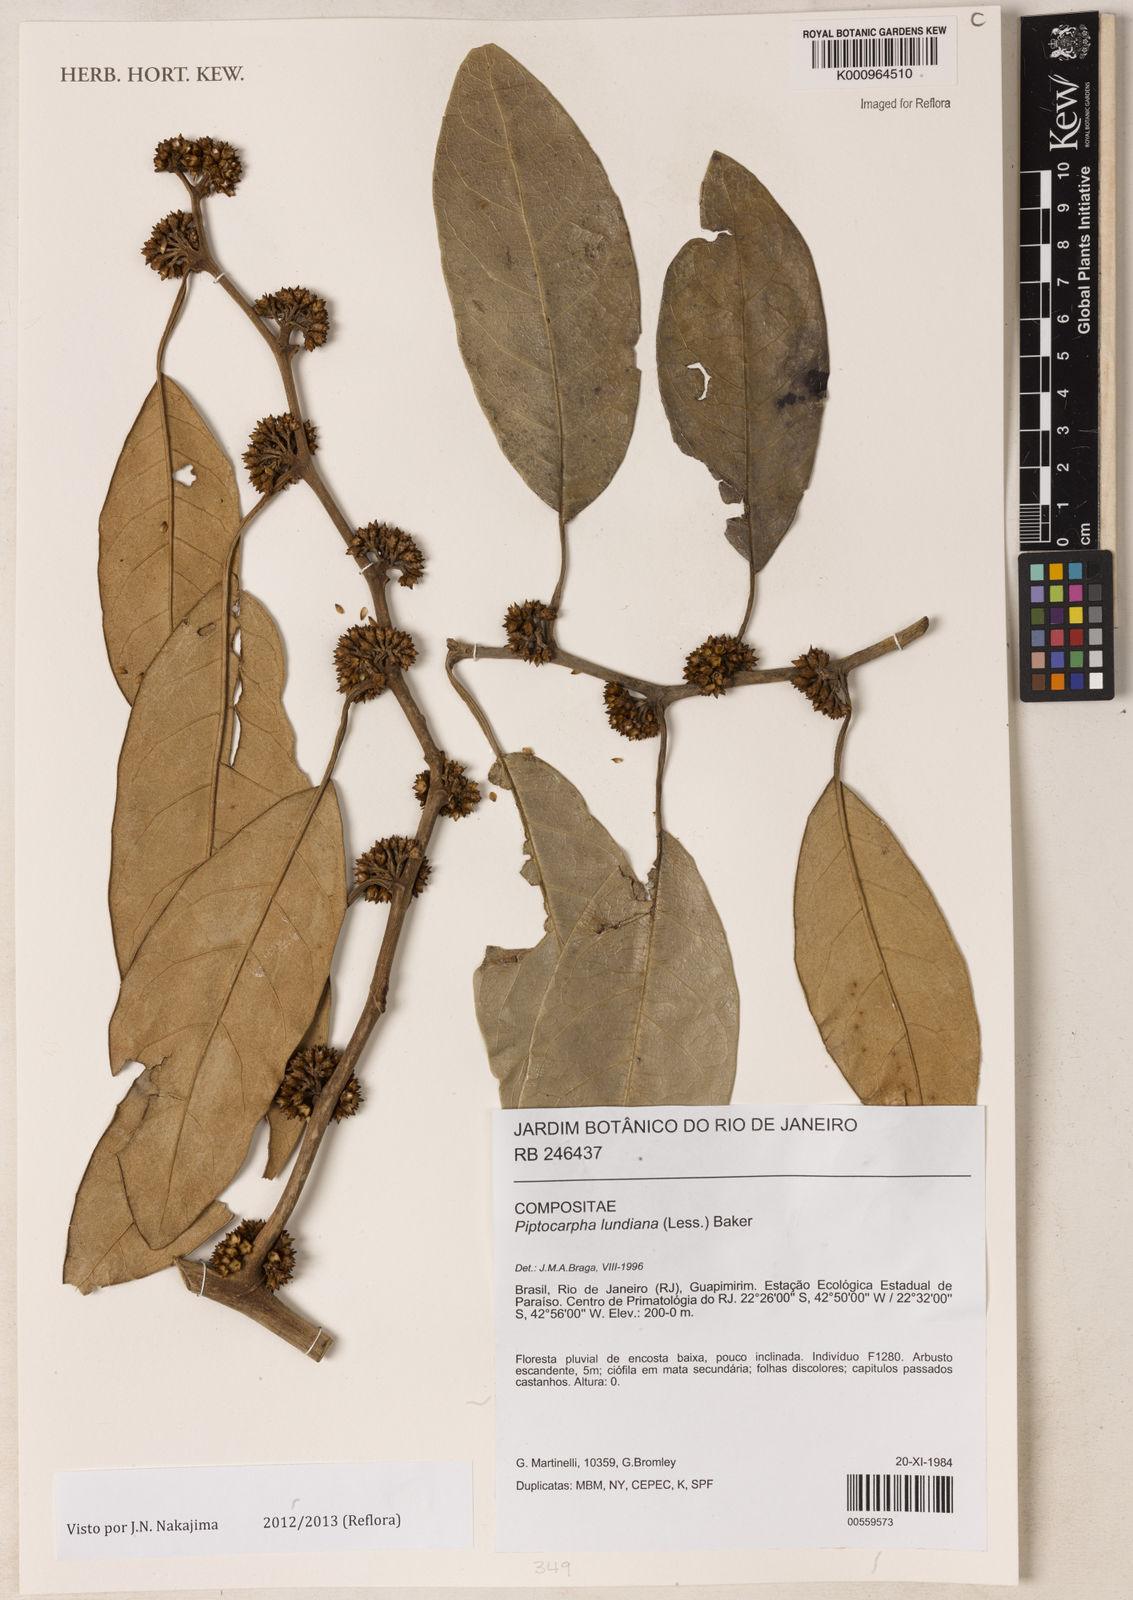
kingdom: Plantae
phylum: Tracheophyta
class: Magnoliopsida
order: Asterales
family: Asteraceae
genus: Piptocarpha
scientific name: Piptocarpha lundiana
